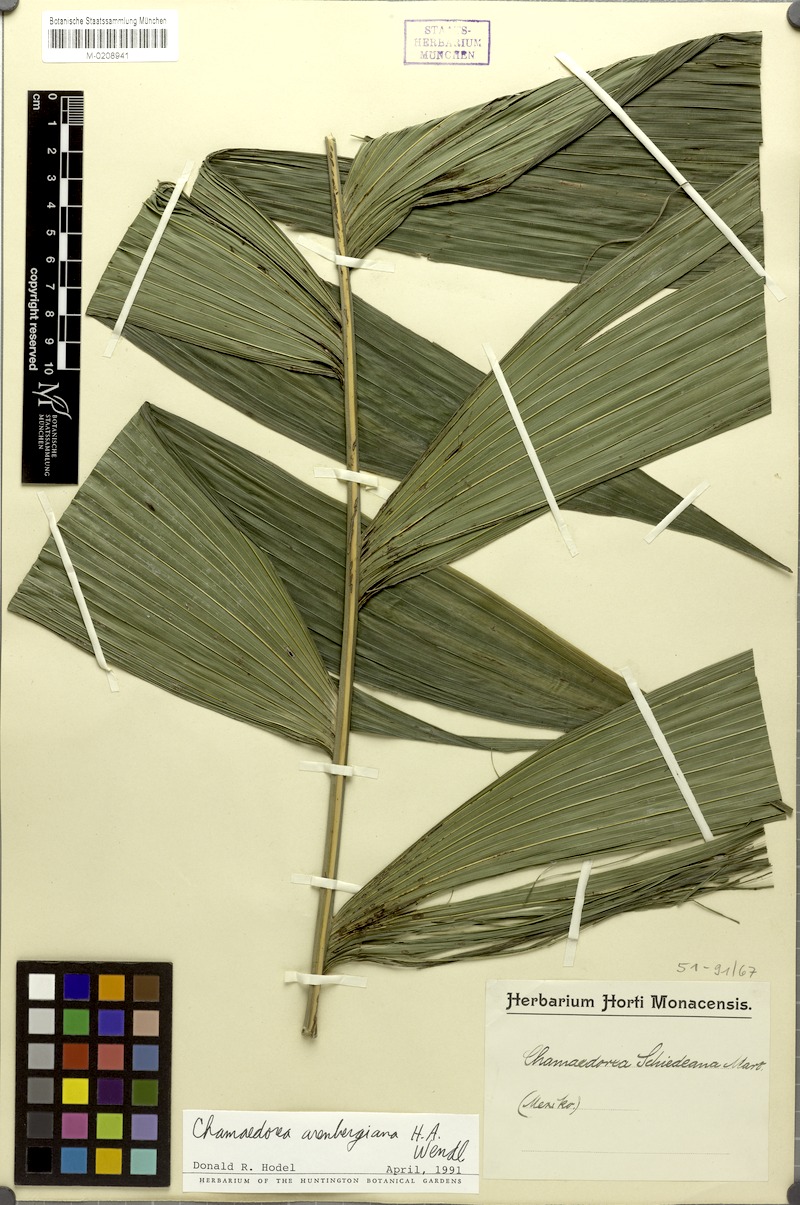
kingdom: Plantae
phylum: Tracheophyta
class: Liliopsida
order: Arecales
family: Arecaceae
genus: Chamaedorea
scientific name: Chamaedorea arenbergiana
